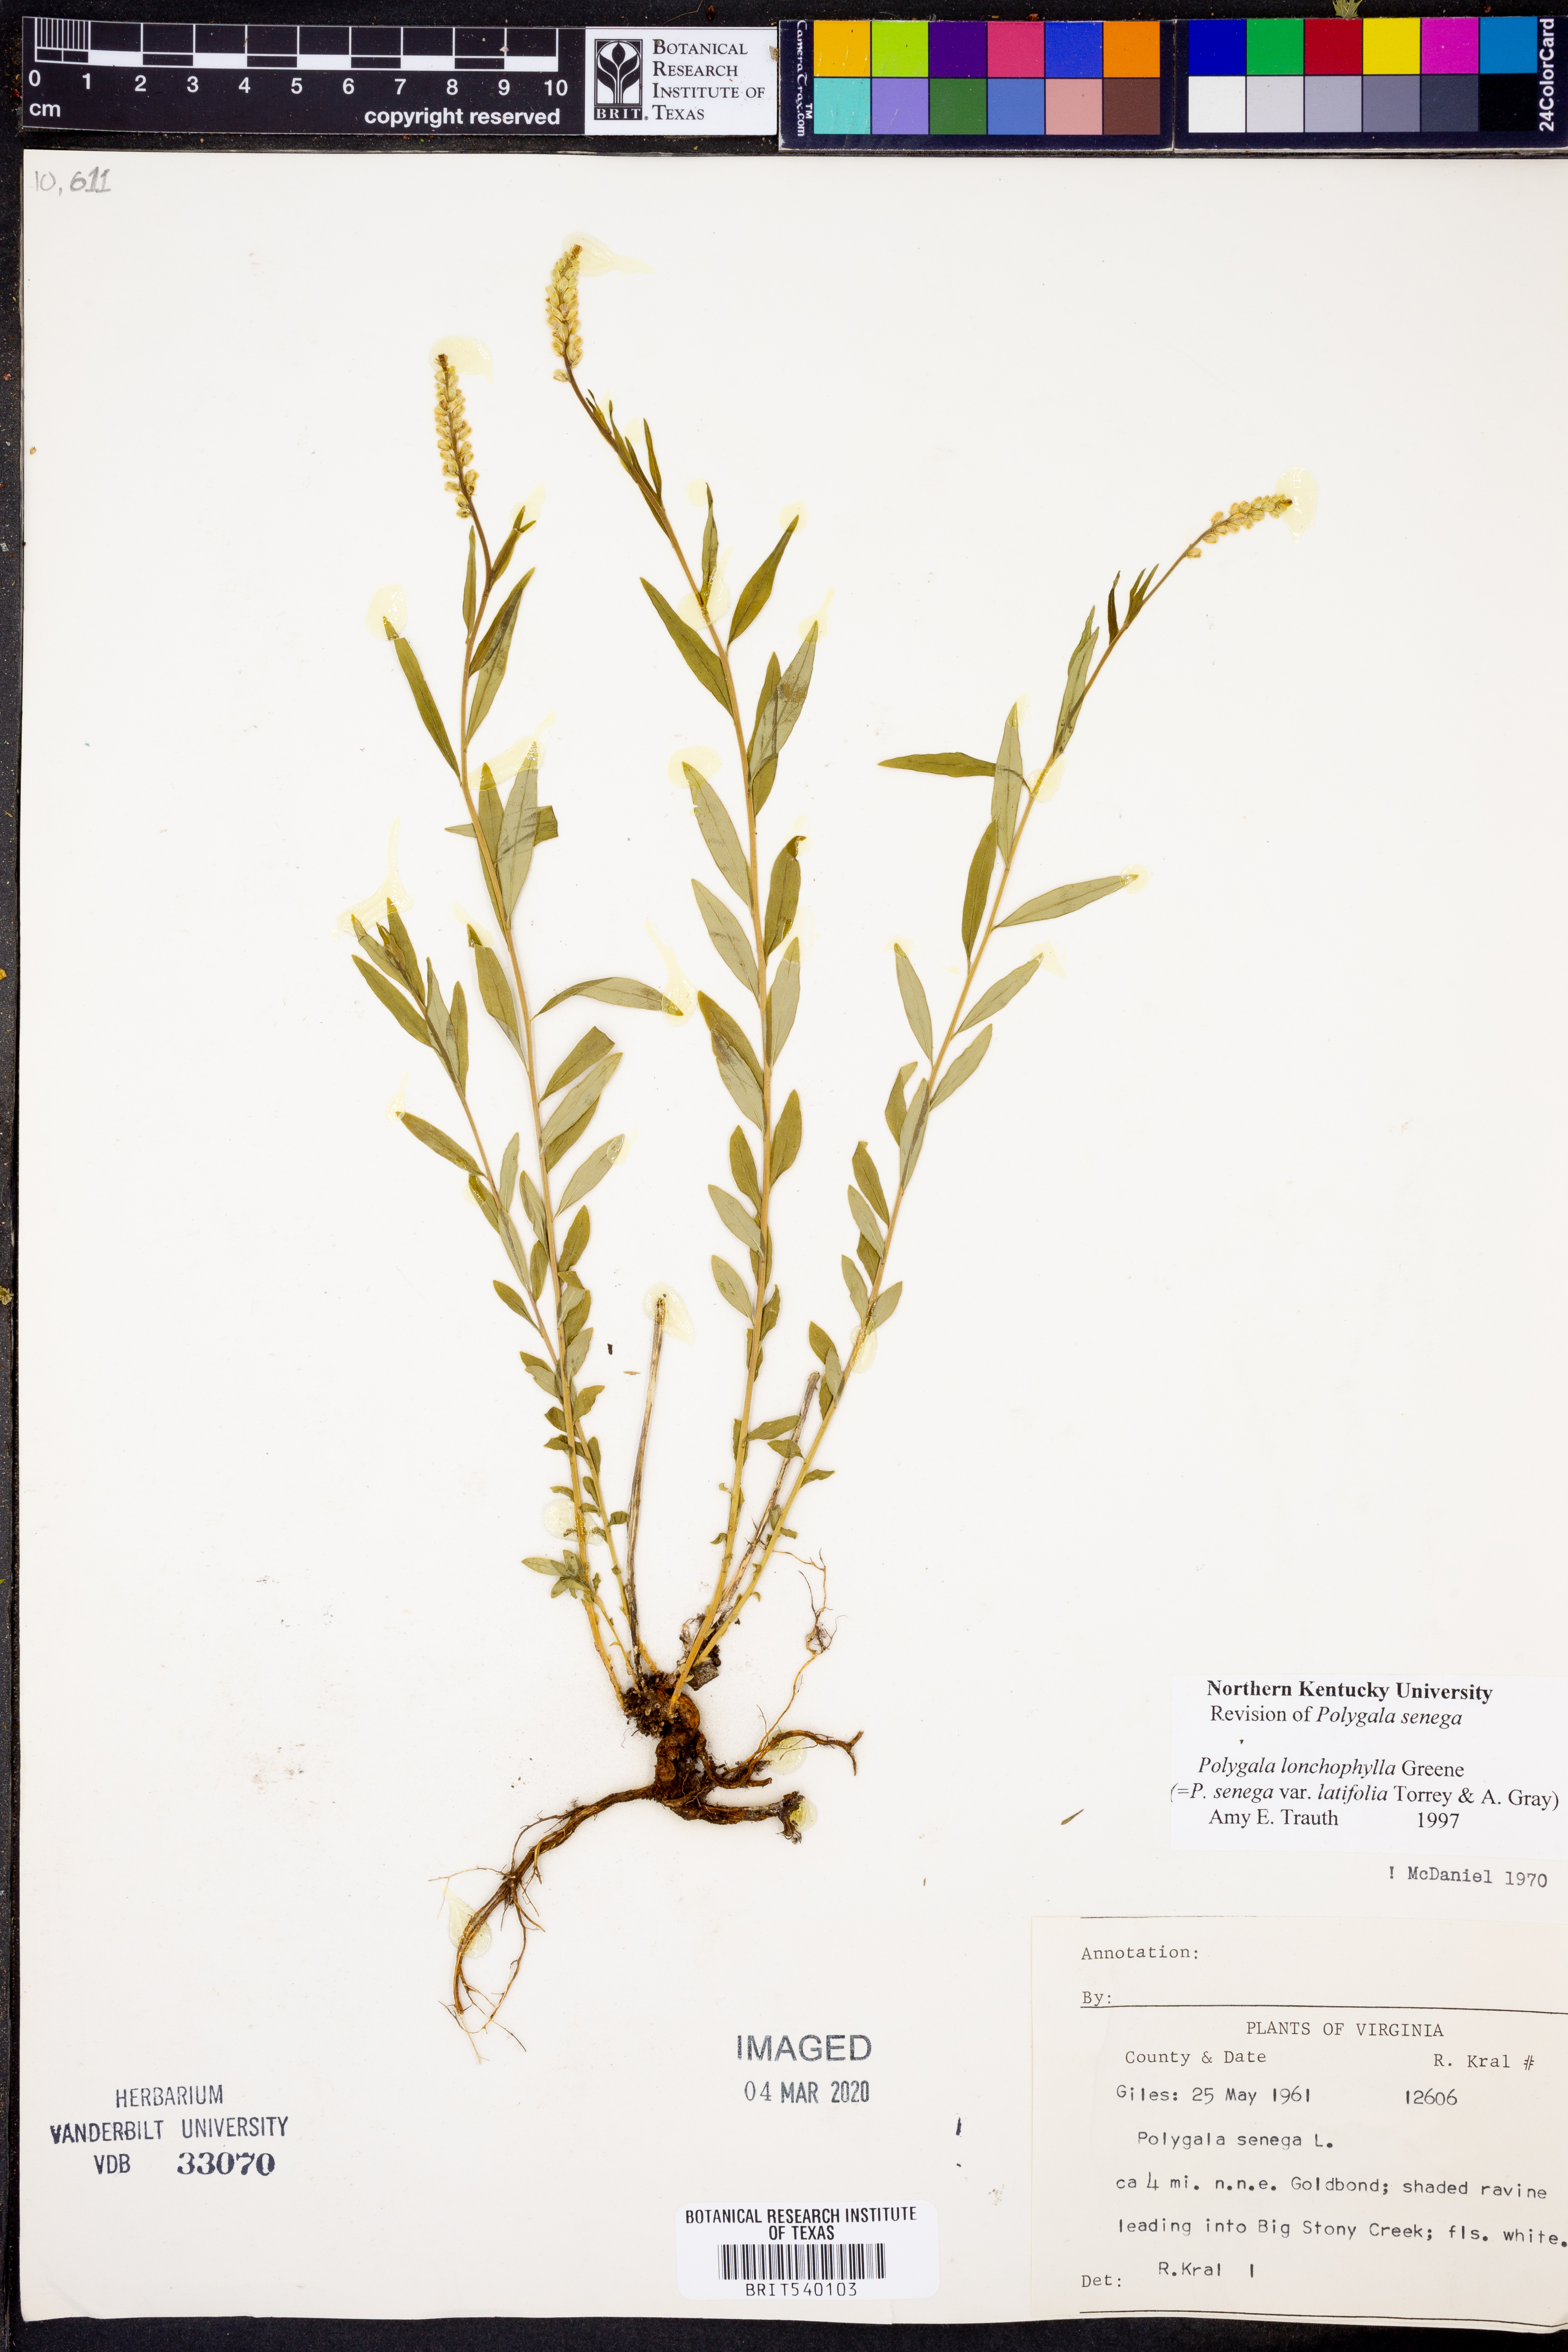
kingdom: Plantae
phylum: Tracheophyta
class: Magnoliopsida
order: Fabales
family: Polygalaceae
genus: Polygala
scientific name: Polygala senega
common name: Seneca snakeroot
